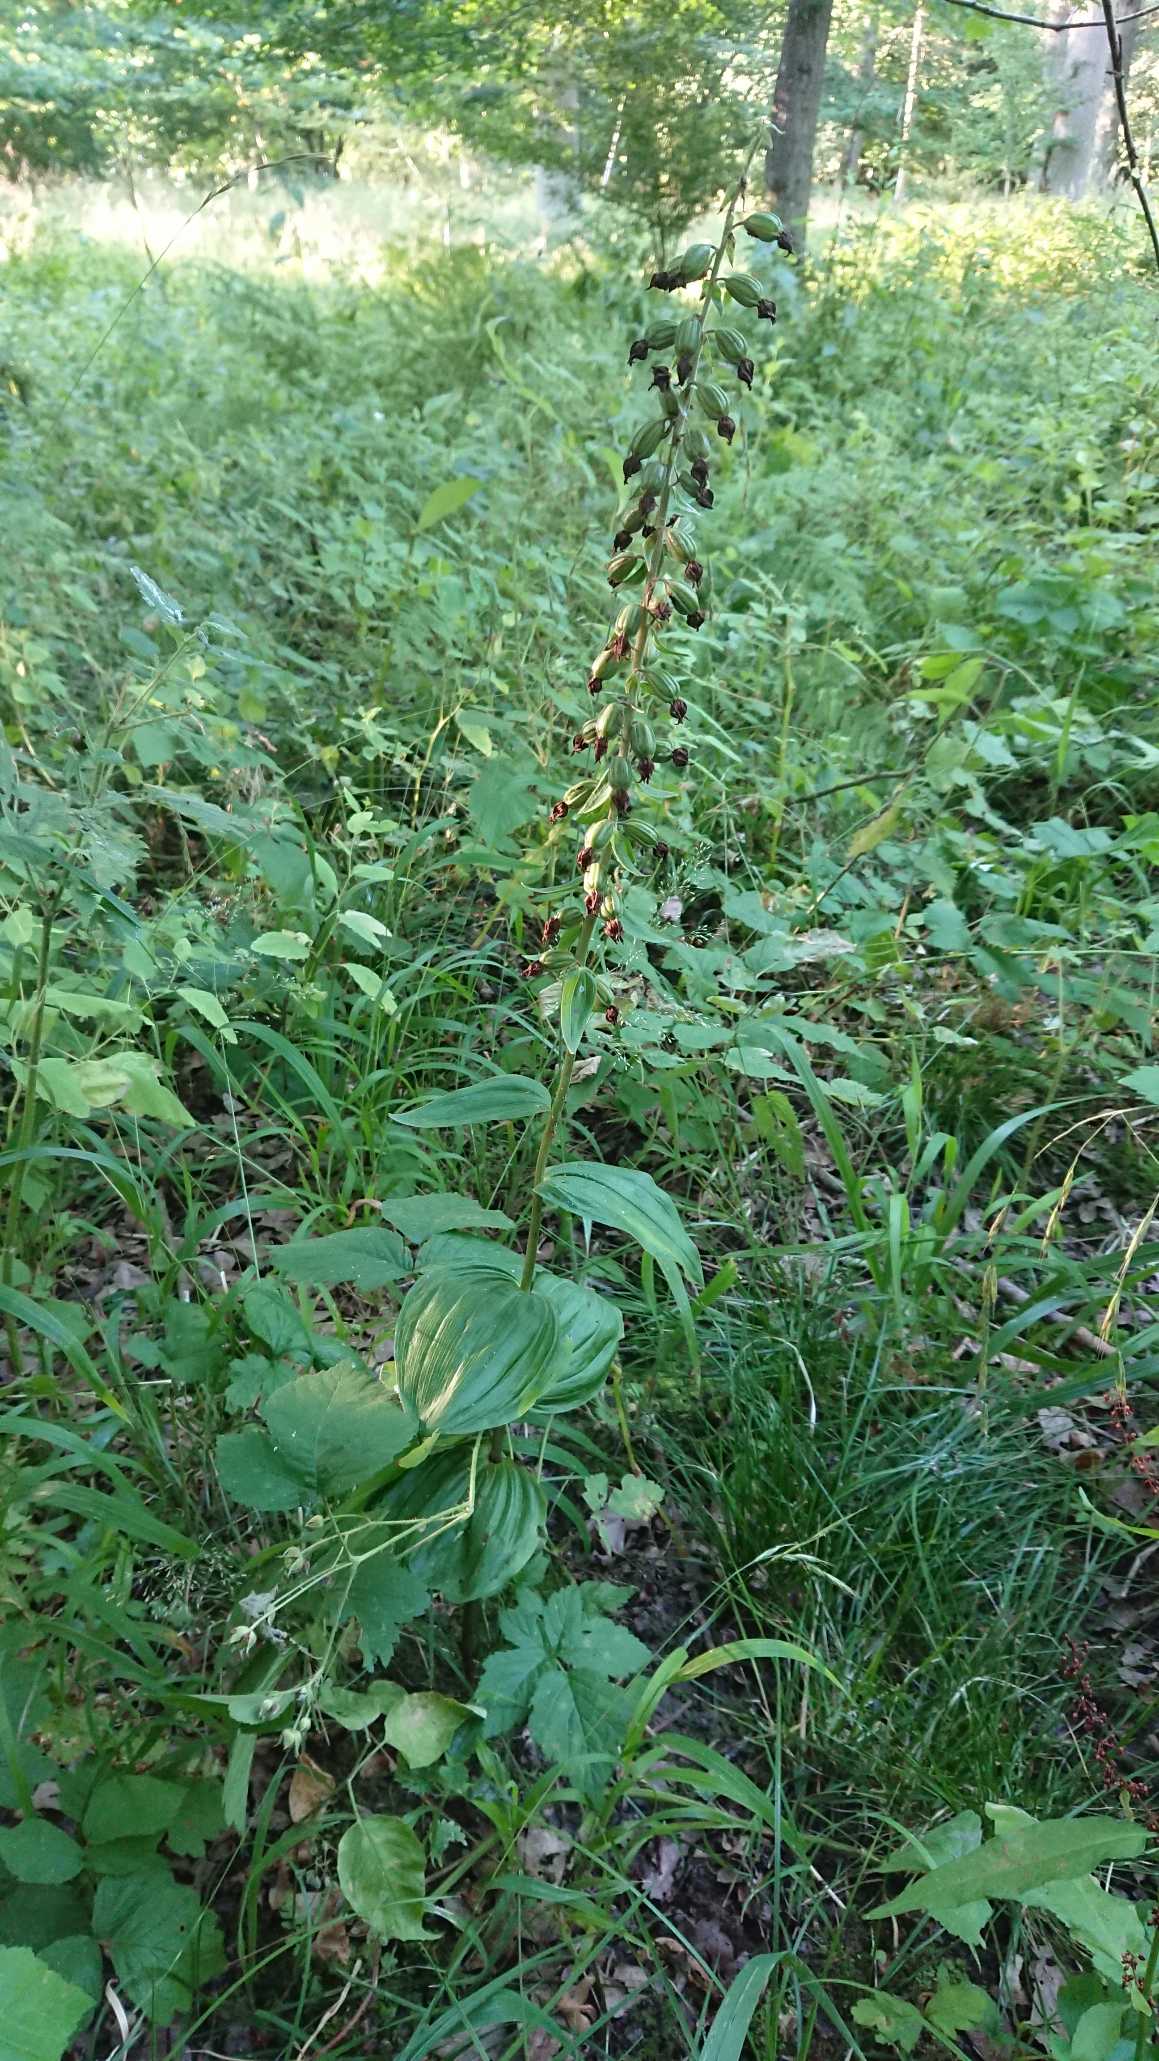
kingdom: Plantae
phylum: Tracheophyta
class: Liliopsida
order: Asparagales
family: Orchidaceae
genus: Epipactis
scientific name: Epipactis helleborine
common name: Skov-hullæbe
